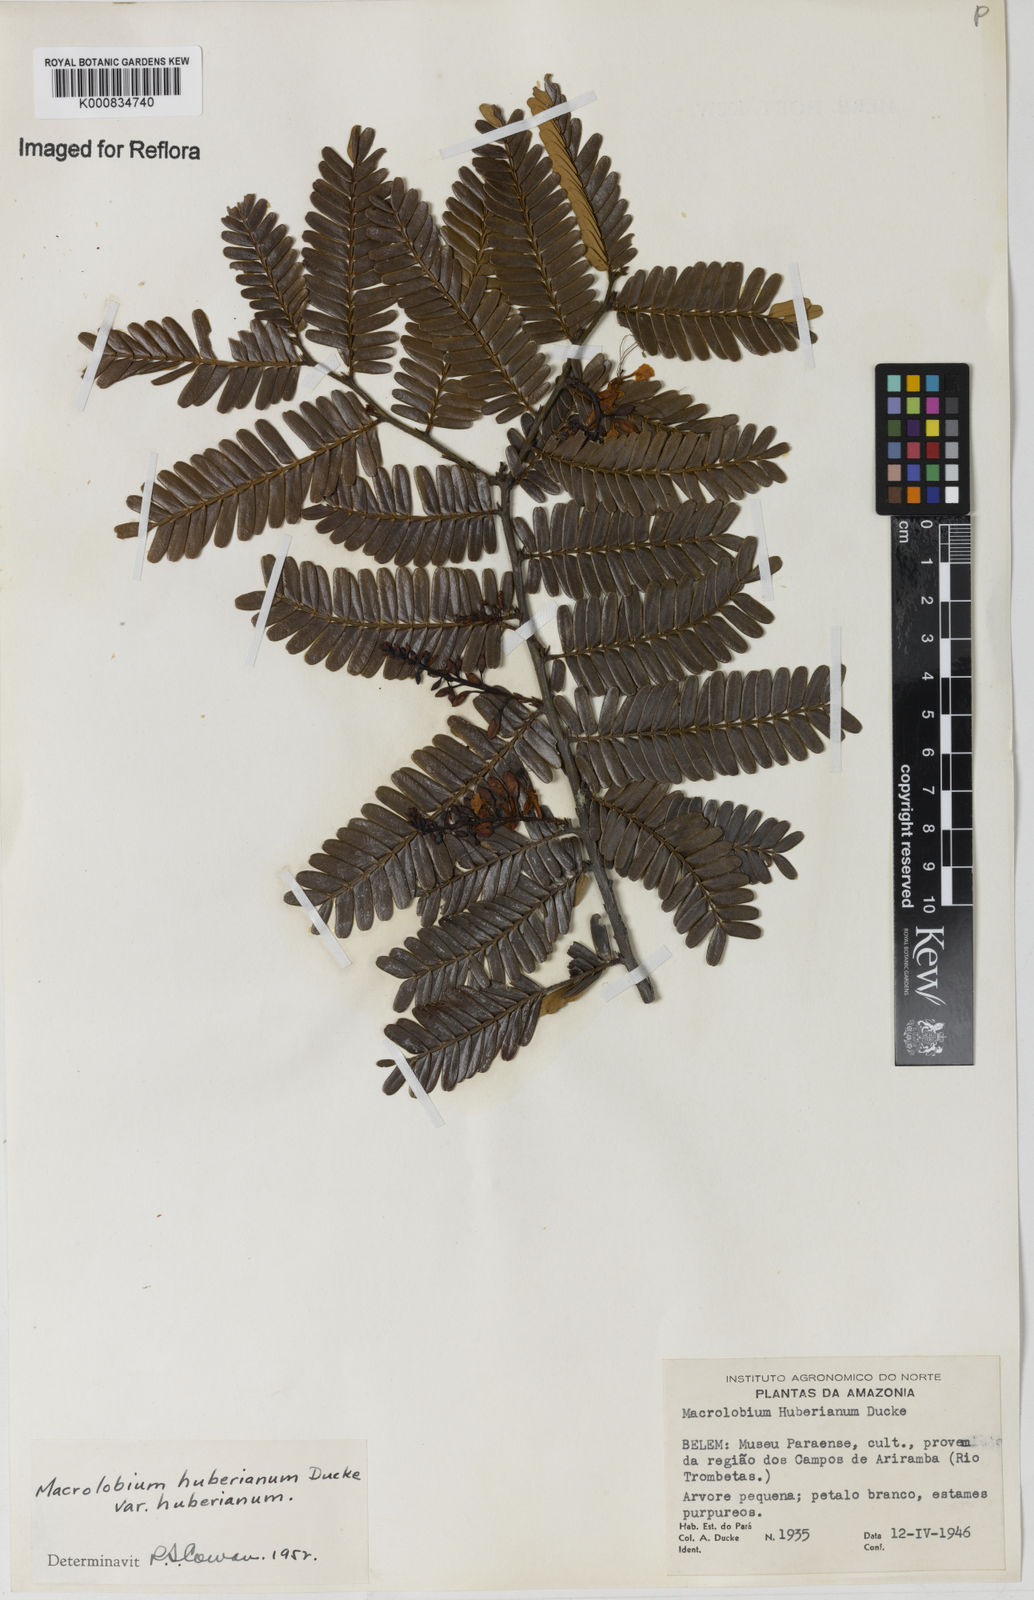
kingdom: Plantae
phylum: Tracheophyta
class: Magnoliopsida
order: Fabales
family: Fabaceae
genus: Macrolobium
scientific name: Macrolobium huberianum
